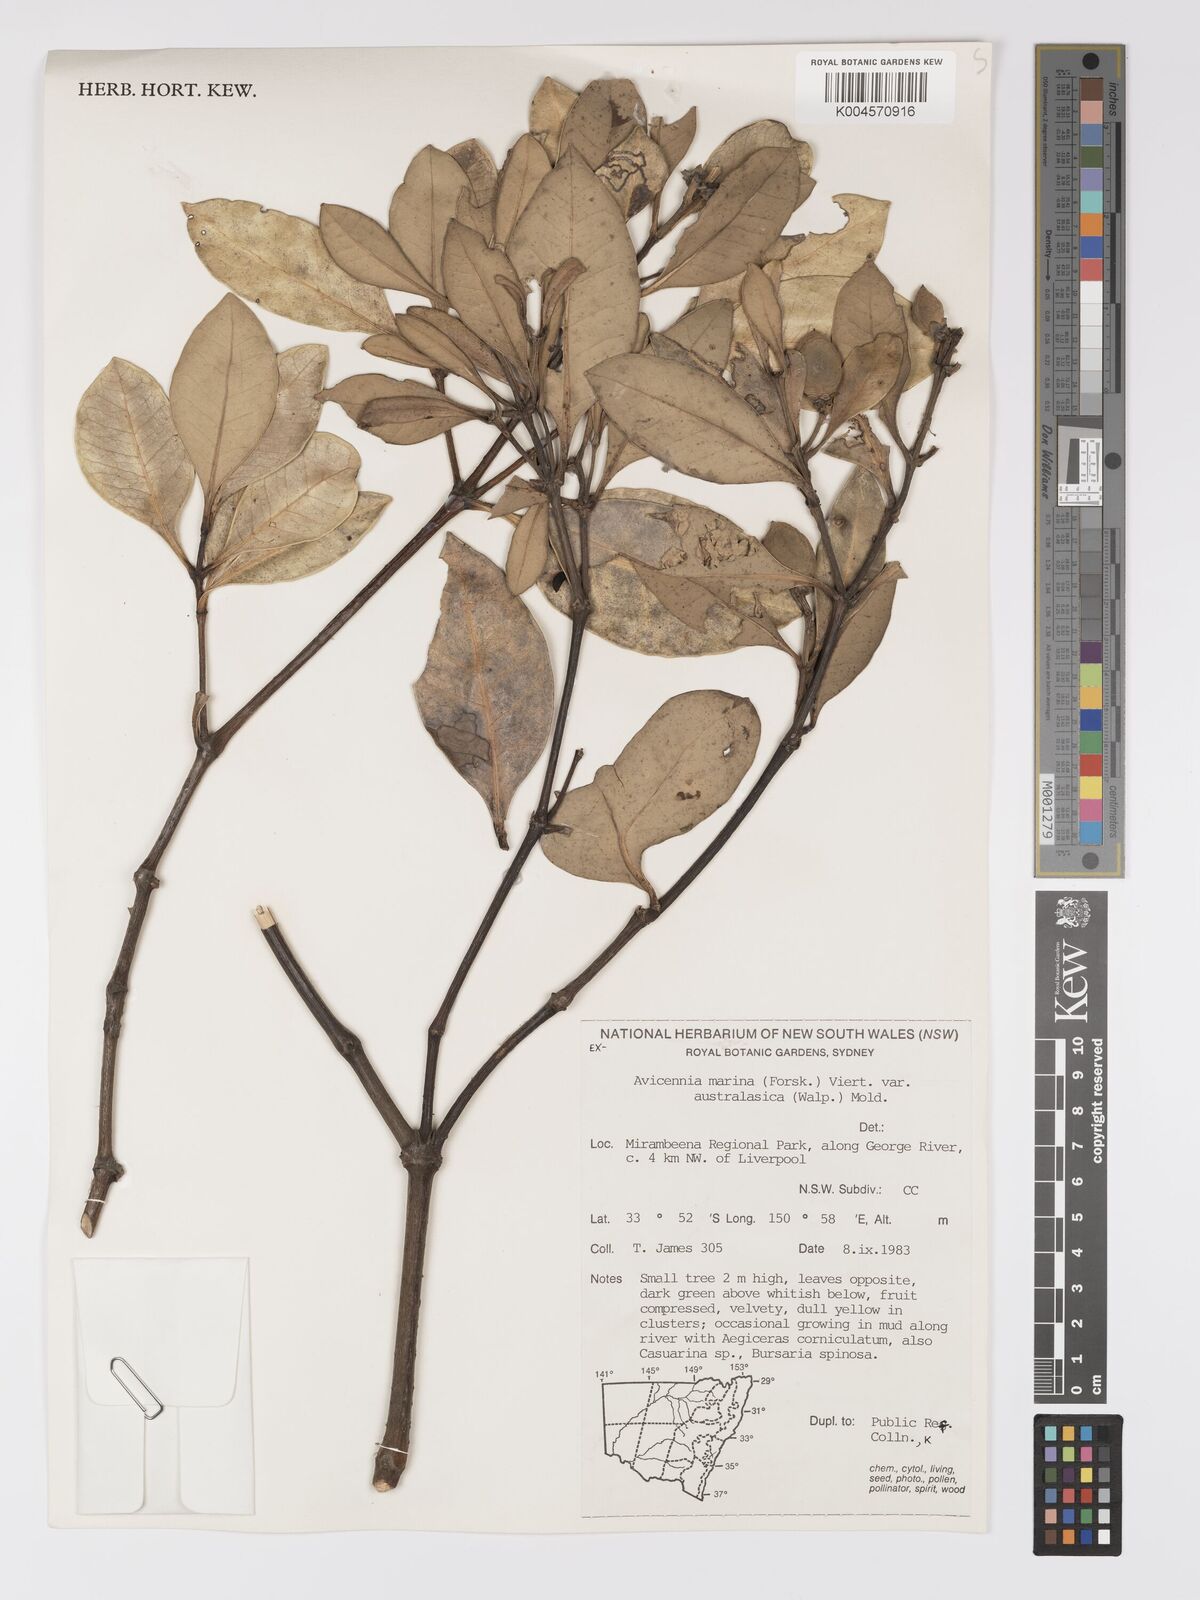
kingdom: Plantae
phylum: Tracheophyta
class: Magnoliopsida
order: Lamiales
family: Acanthaceae
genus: Avicennia
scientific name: Avicennia marina
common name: Gray mangrove
